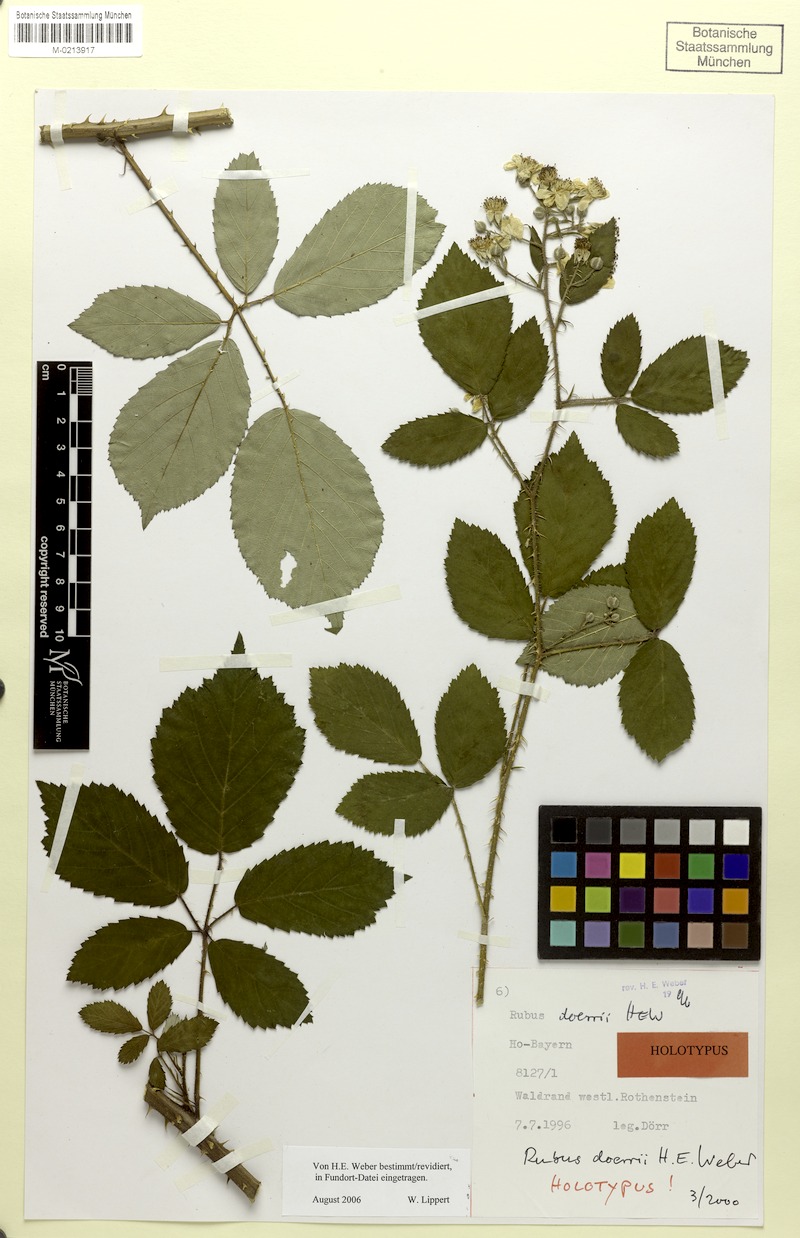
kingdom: Plantae
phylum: Tracheophyta
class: Magnoliopsida
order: Rosales
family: Rosaceae
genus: Rubus
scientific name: Rubus doerrii
